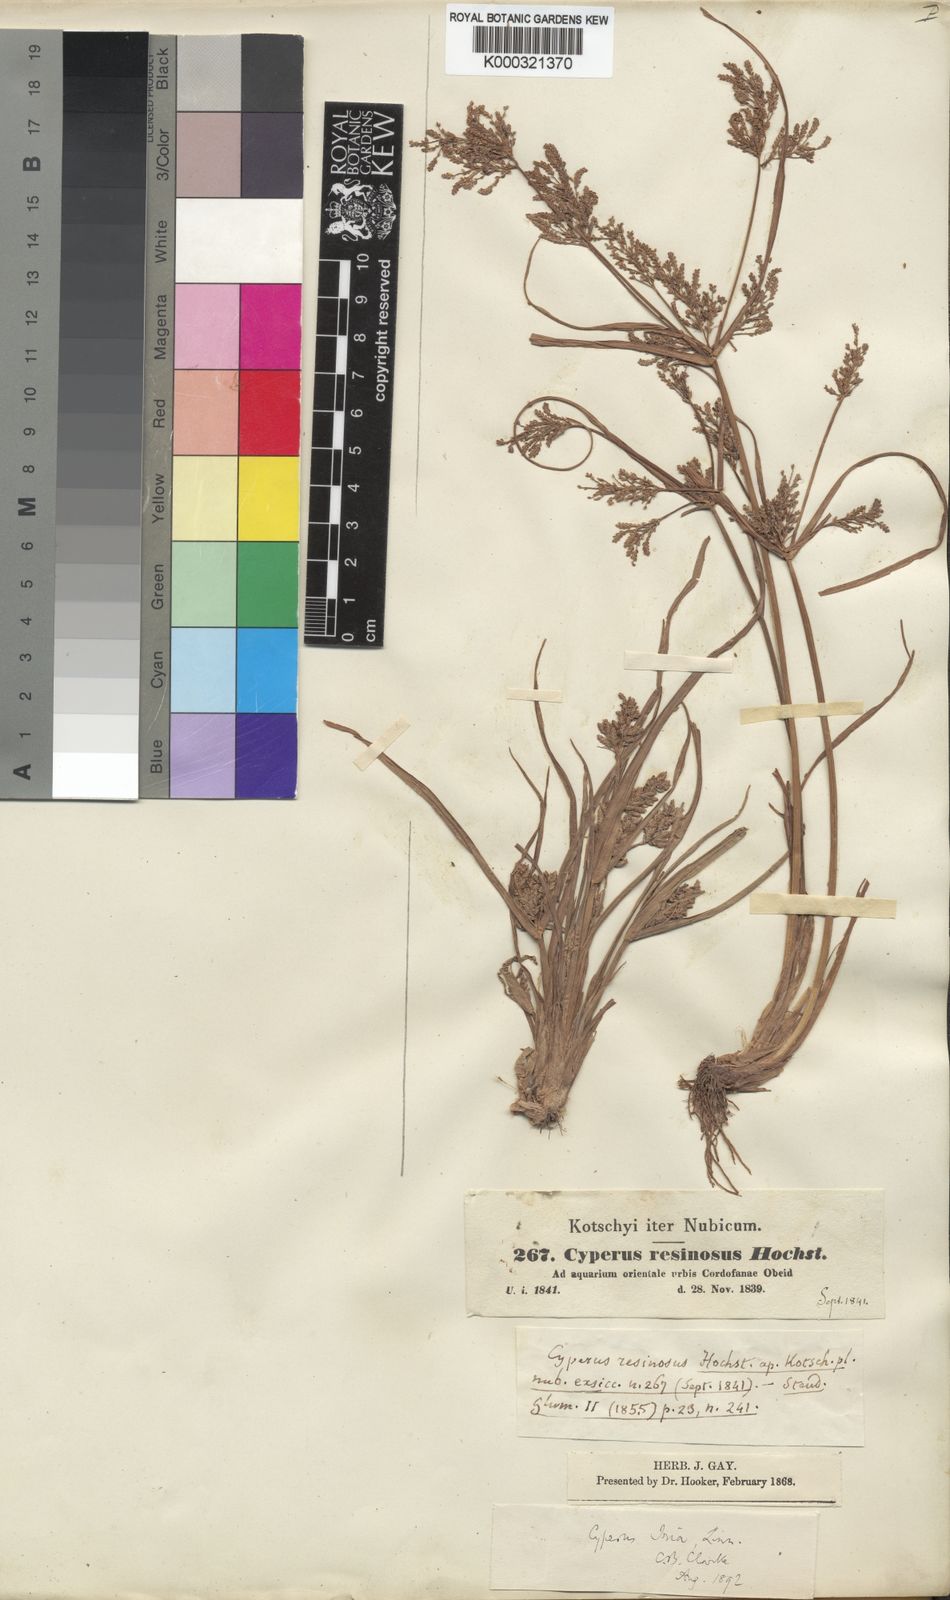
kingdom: Plantae
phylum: Tracheophyta
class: Liliopsida
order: Poales
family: Cyperaceae
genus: Cyperus
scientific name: Cyperus iria
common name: Ricefield flatsedge
